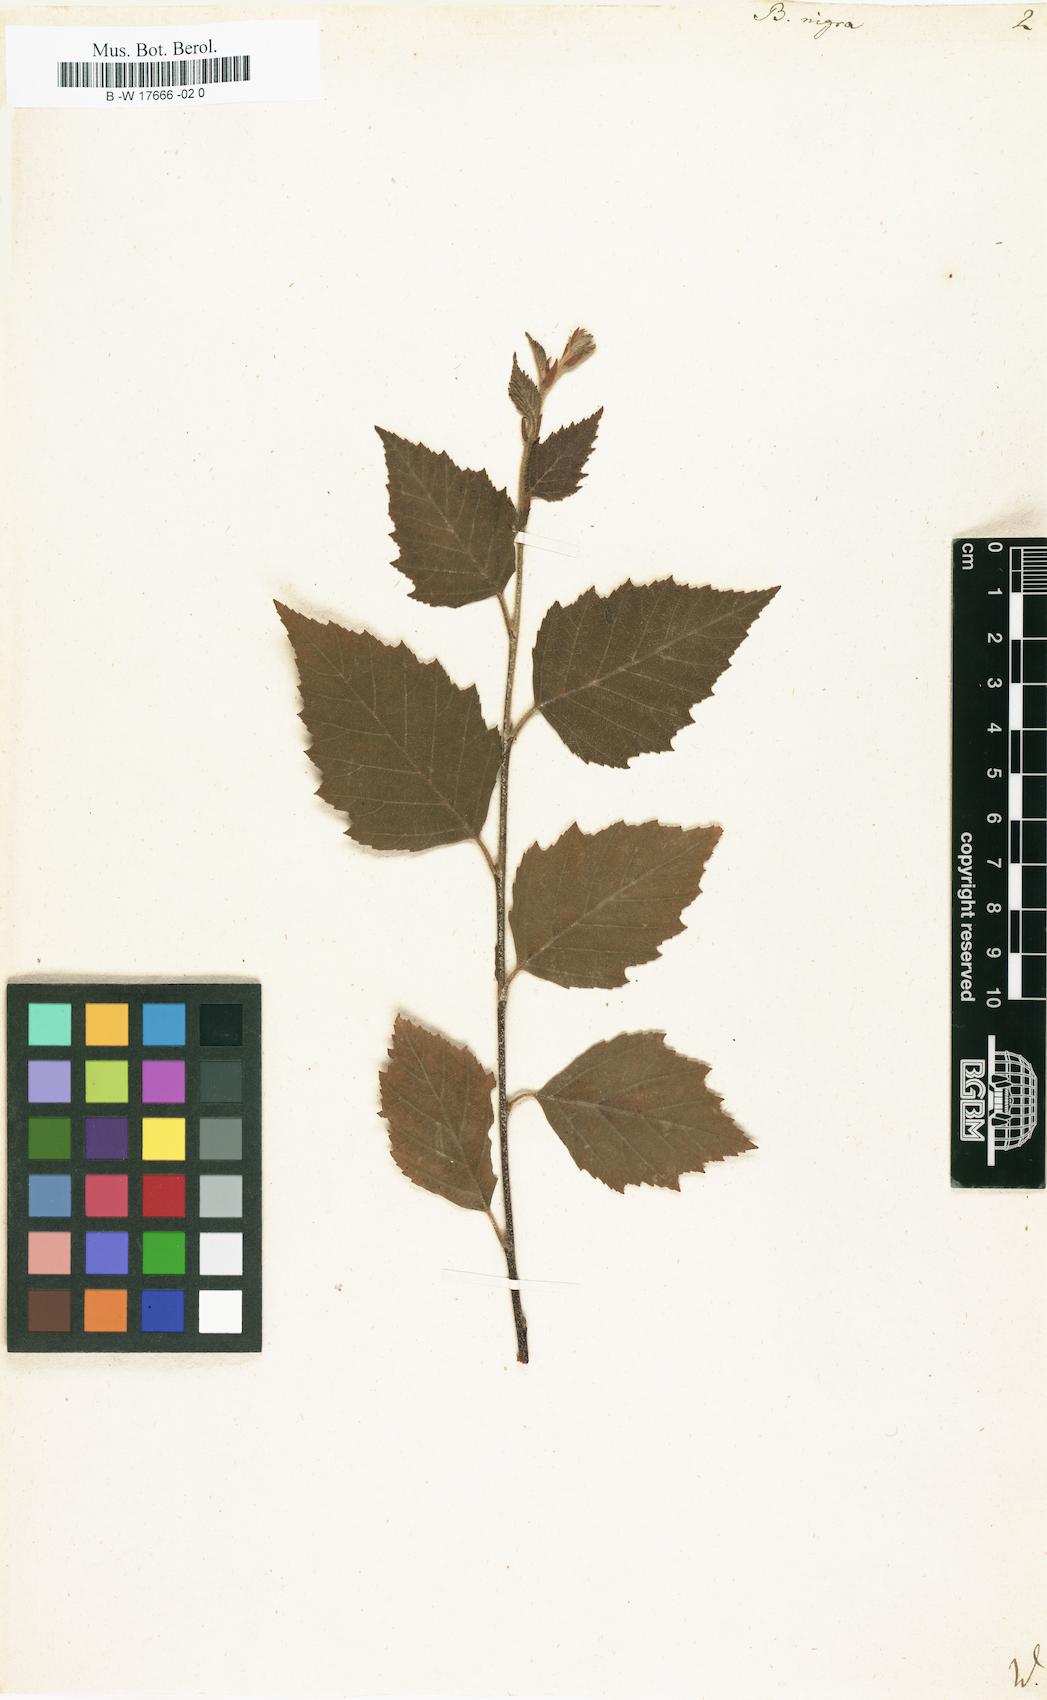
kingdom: Plantae
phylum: Tracheophyta
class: Magnoliopsida
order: Fagales
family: Betulaceae
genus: Betula
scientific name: Betula nigra
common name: Black birch
